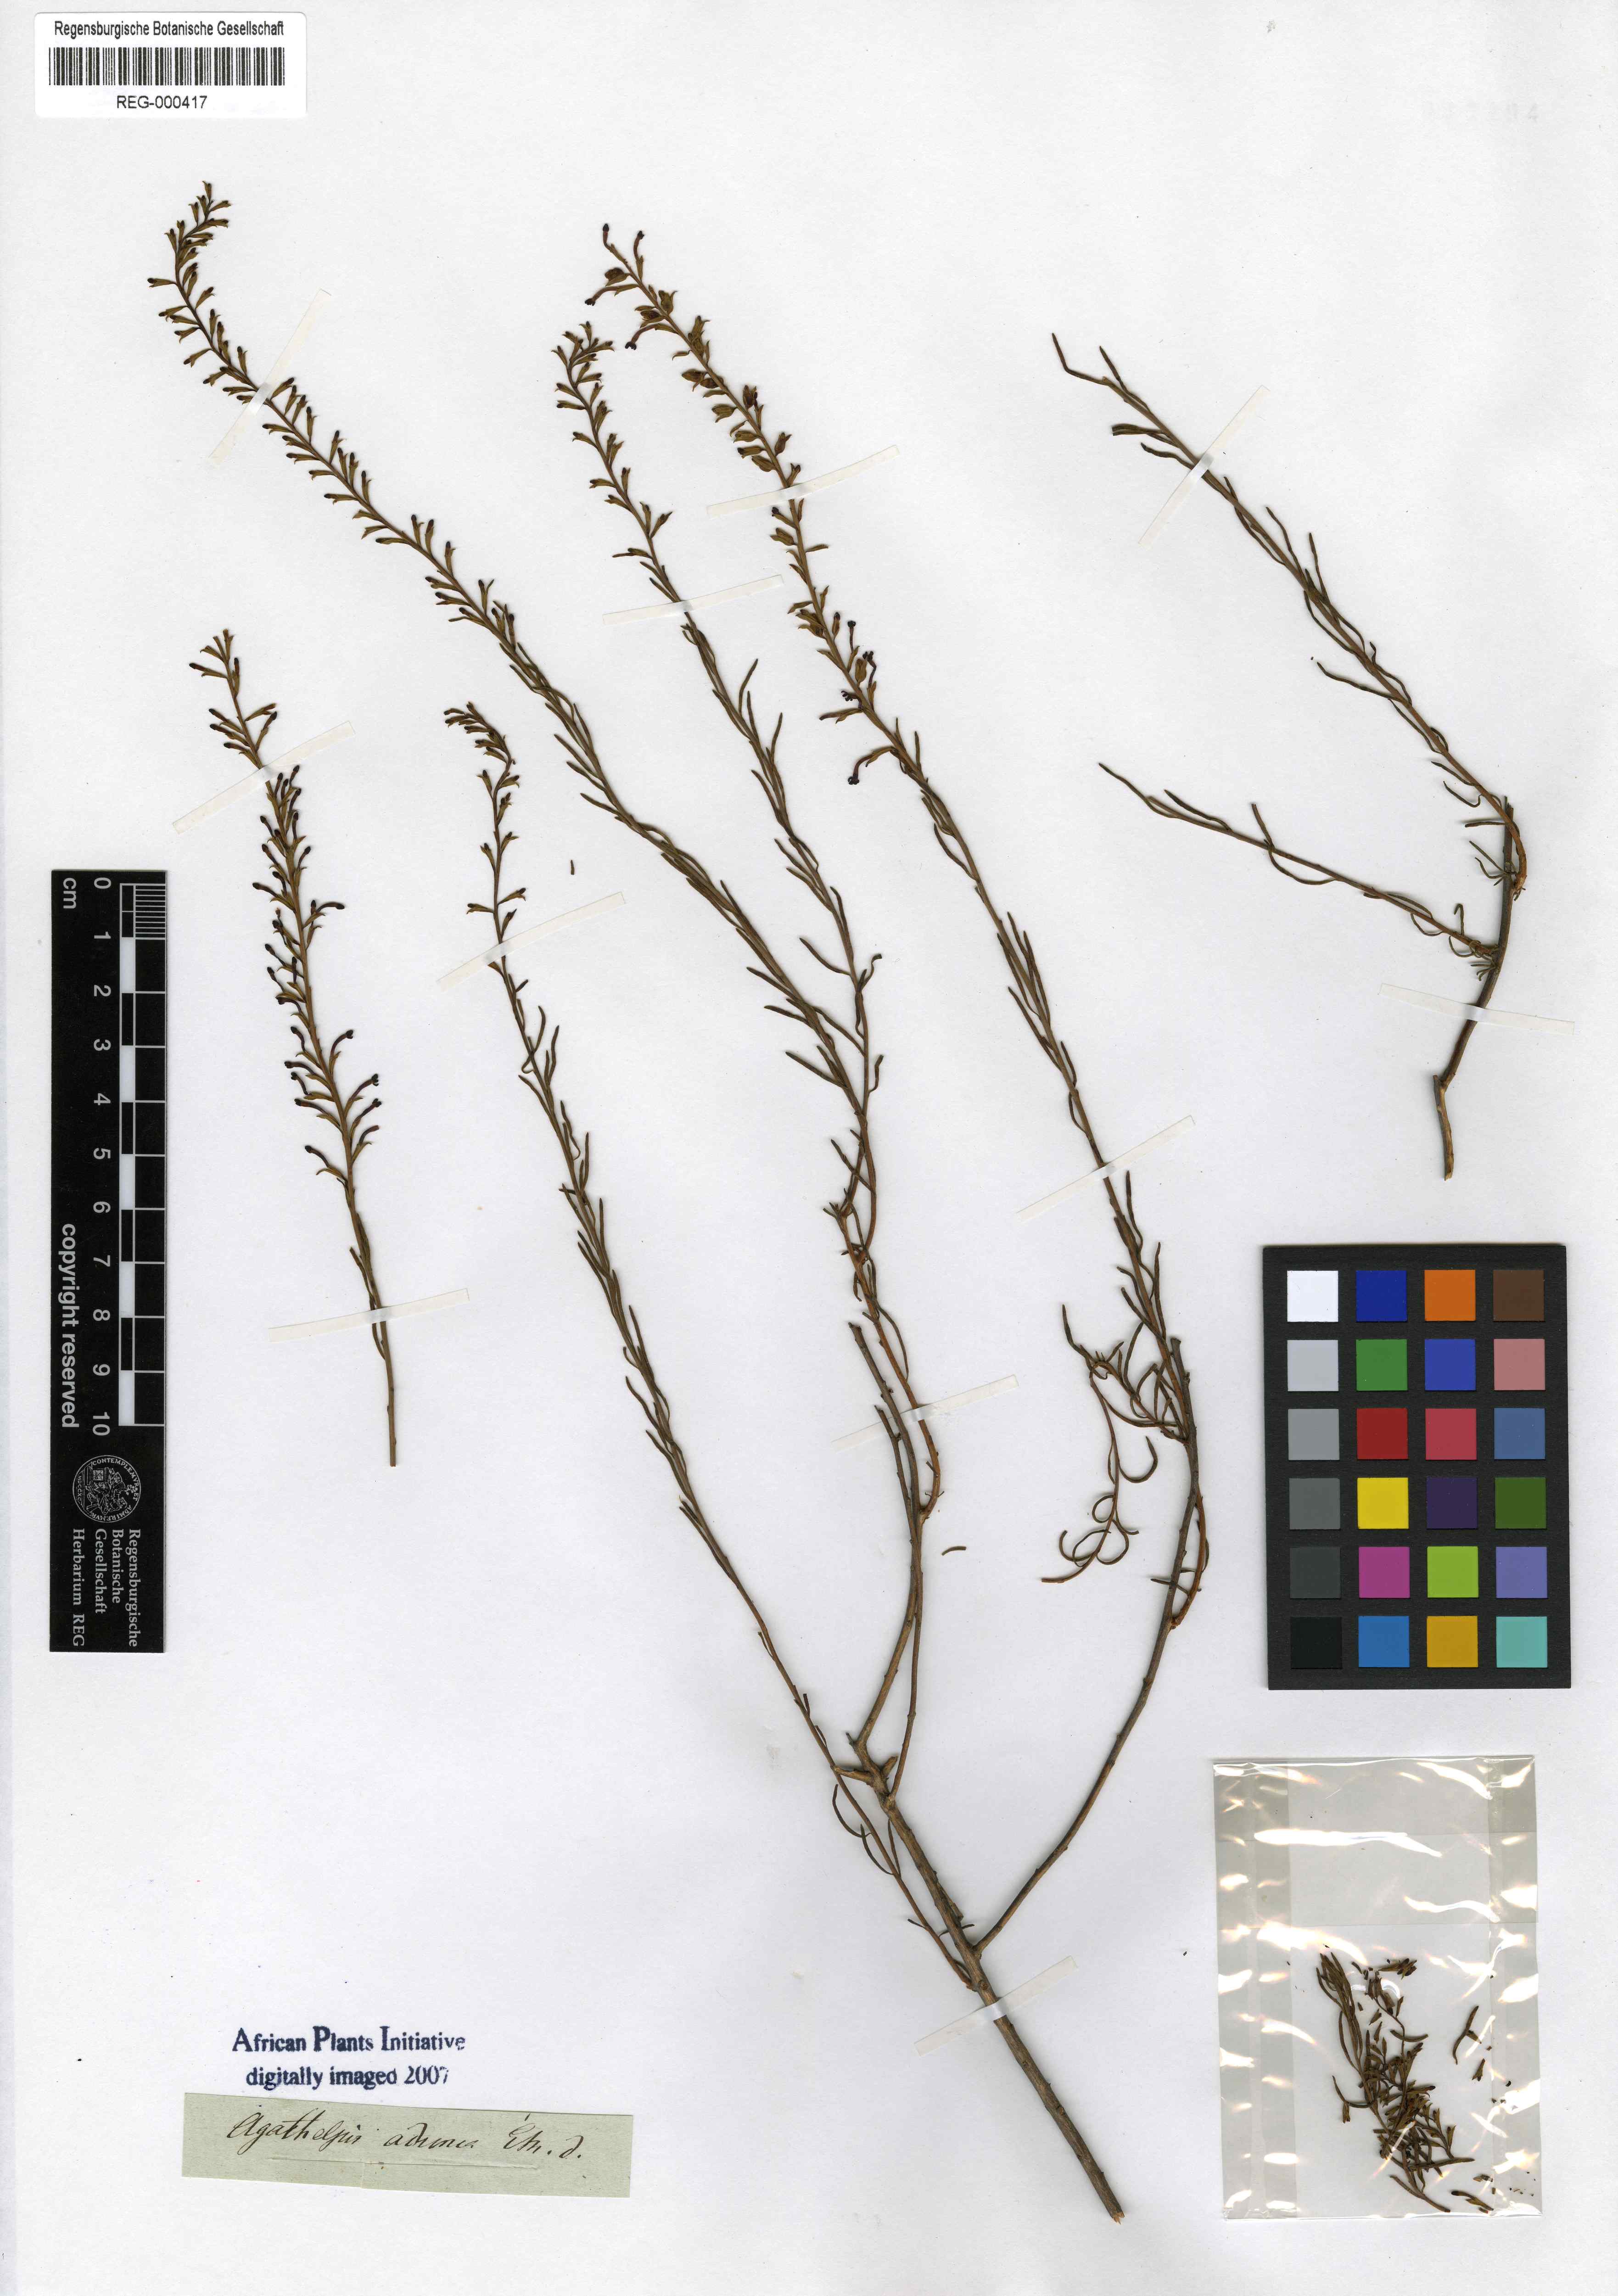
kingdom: Plantae
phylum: Tracheophyta
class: Magnoliopsida
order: Lamiales
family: Scrophulariaceae
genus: Microdon
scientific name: Microdon dubius
